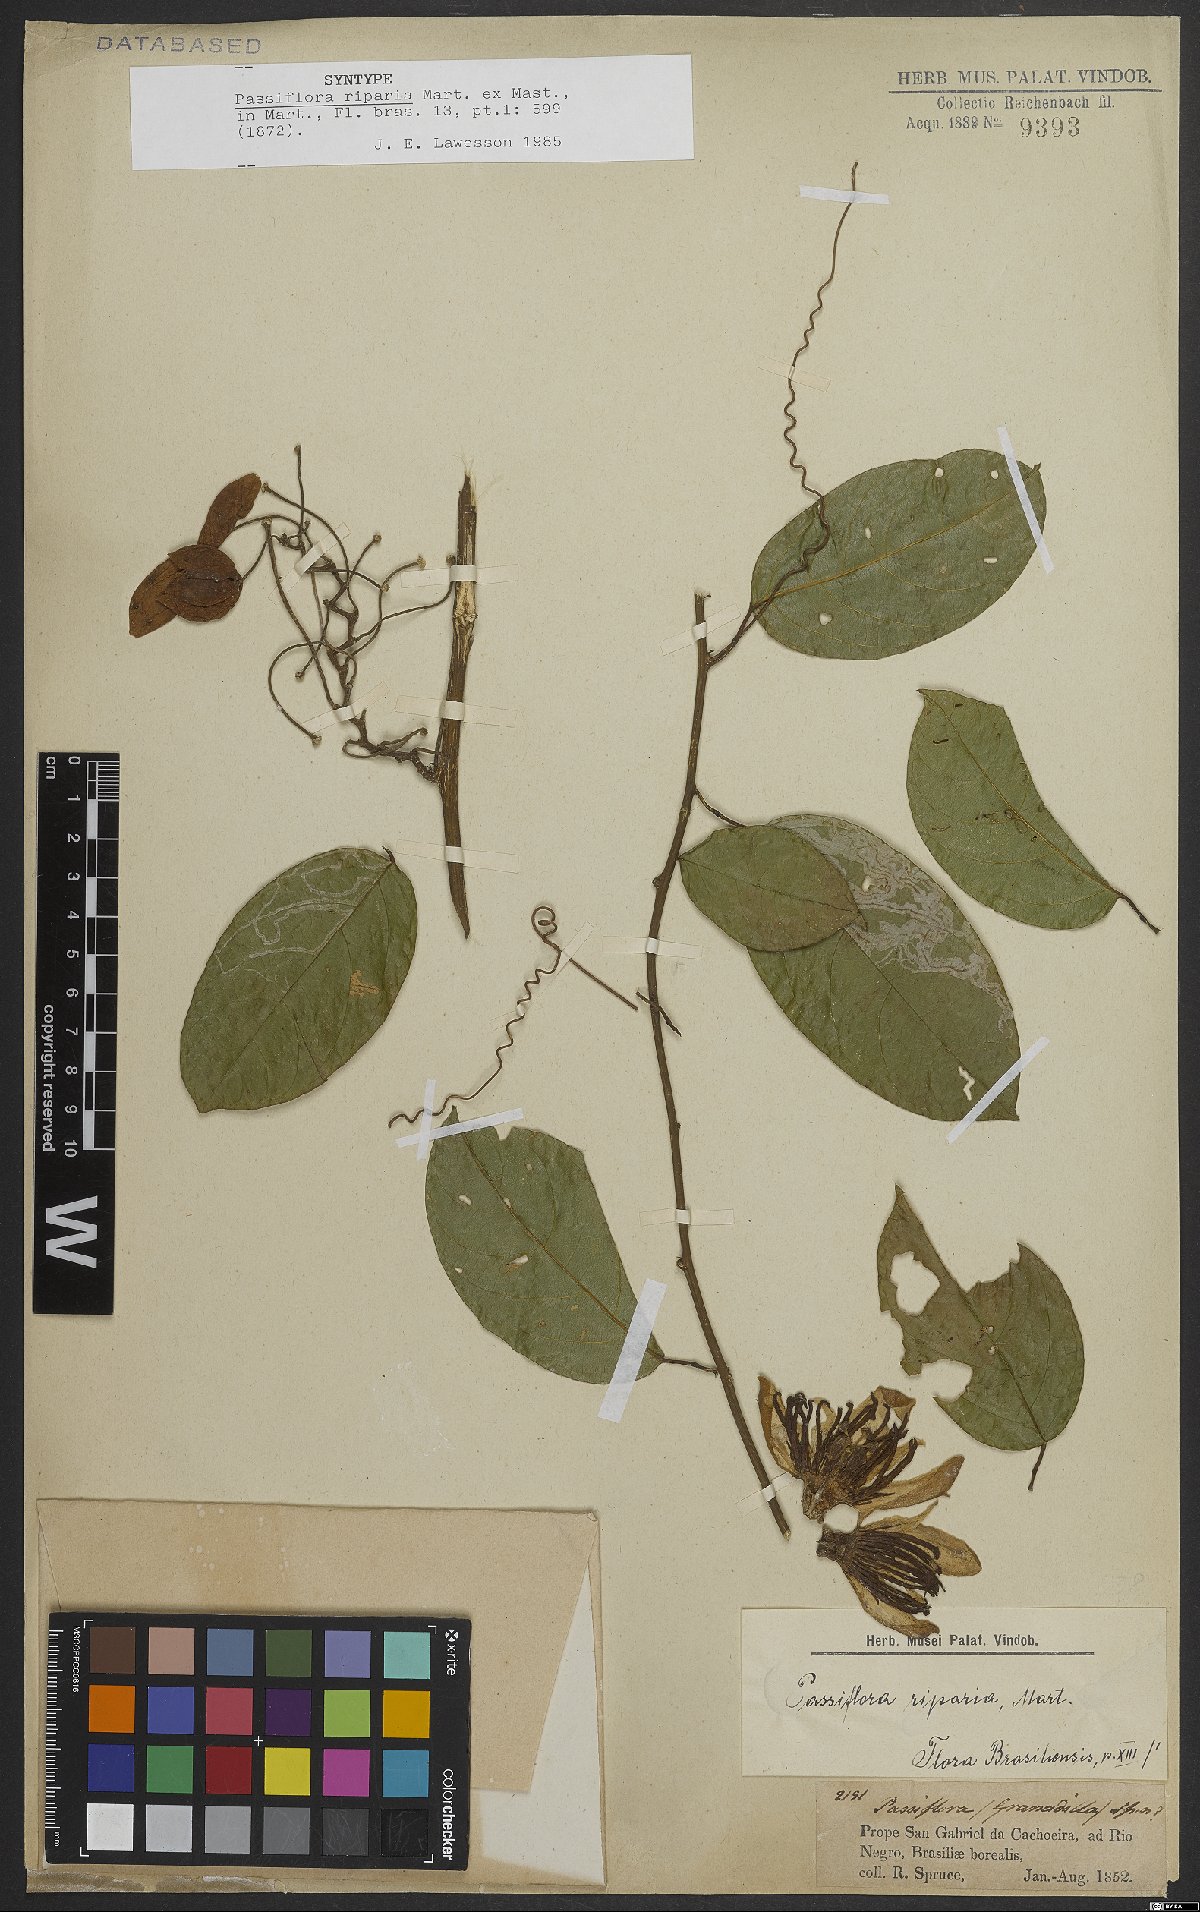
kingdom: Plantae
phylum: Tracheophyta
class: Magnoliopsida
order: Malpighiales
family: Passifloraceae
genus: Passiflora
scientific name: Passiflora riparia
